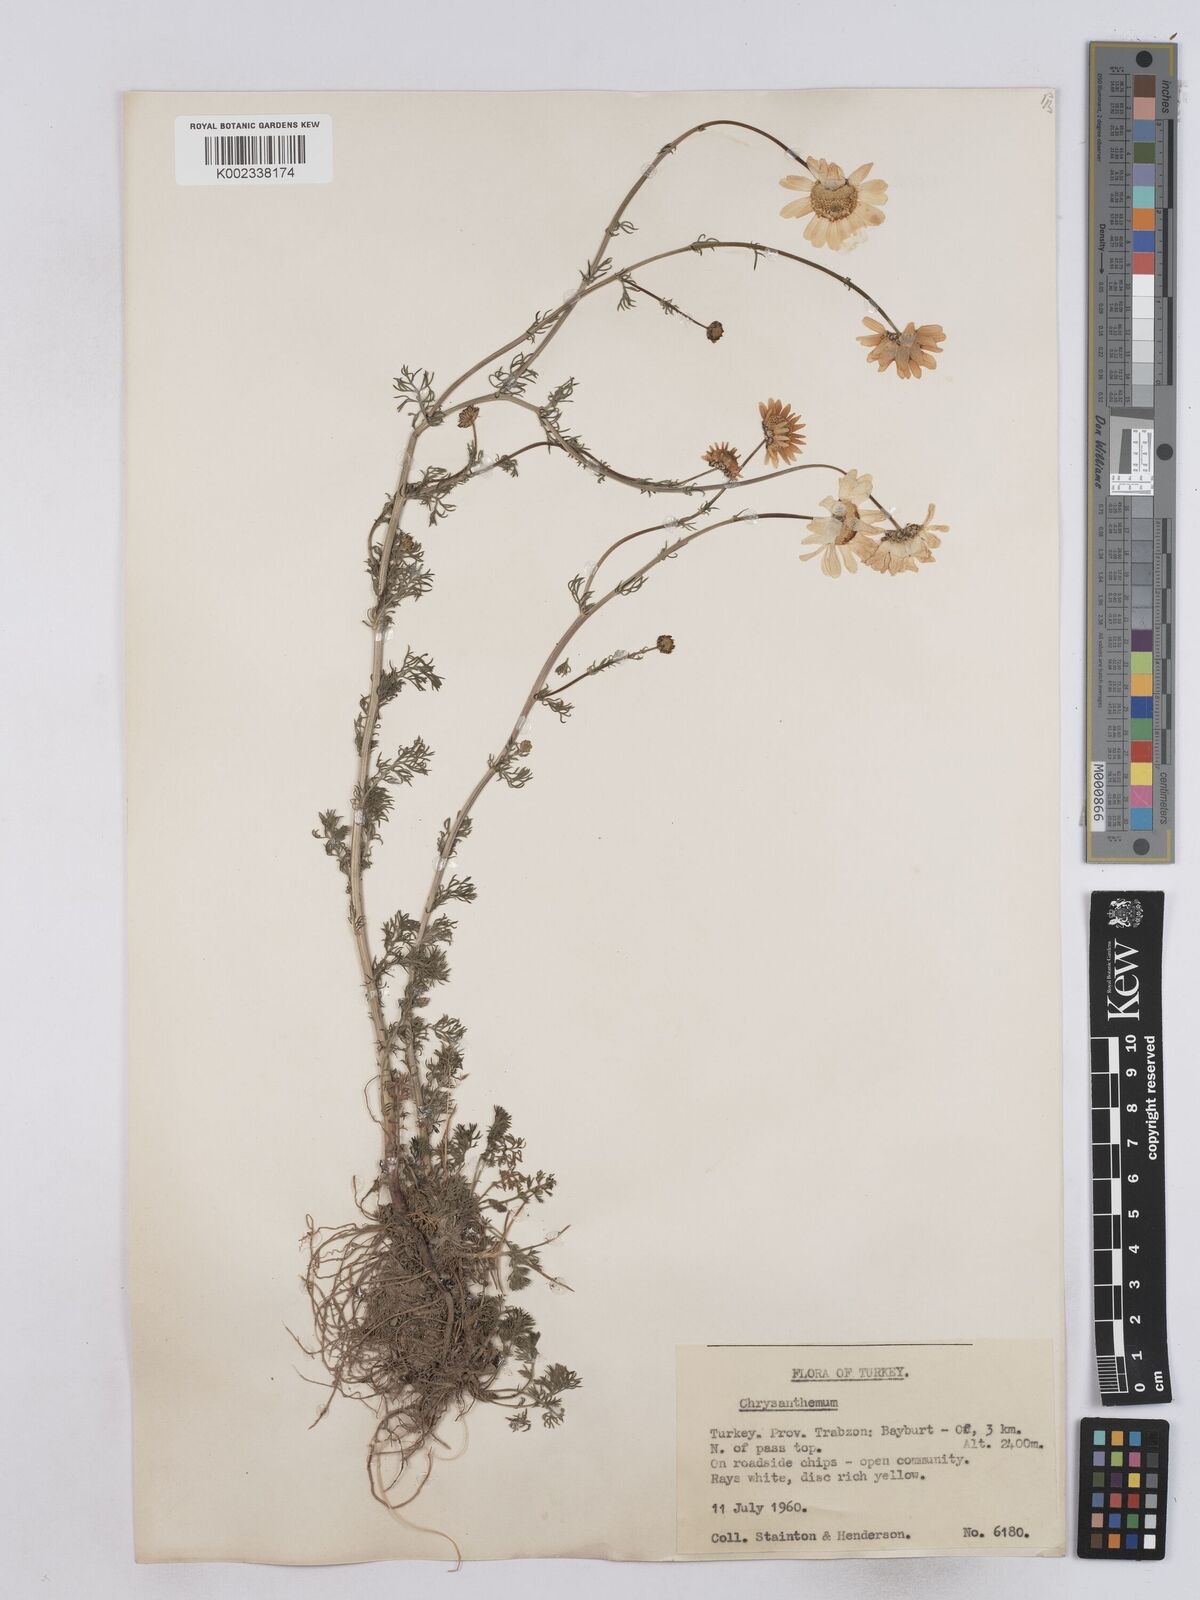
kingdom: Plantae
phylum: Tracheophyta
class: Magnoliopsida
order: Asterales
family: Asteraceae
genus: Matricaria
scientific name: Matricaria
